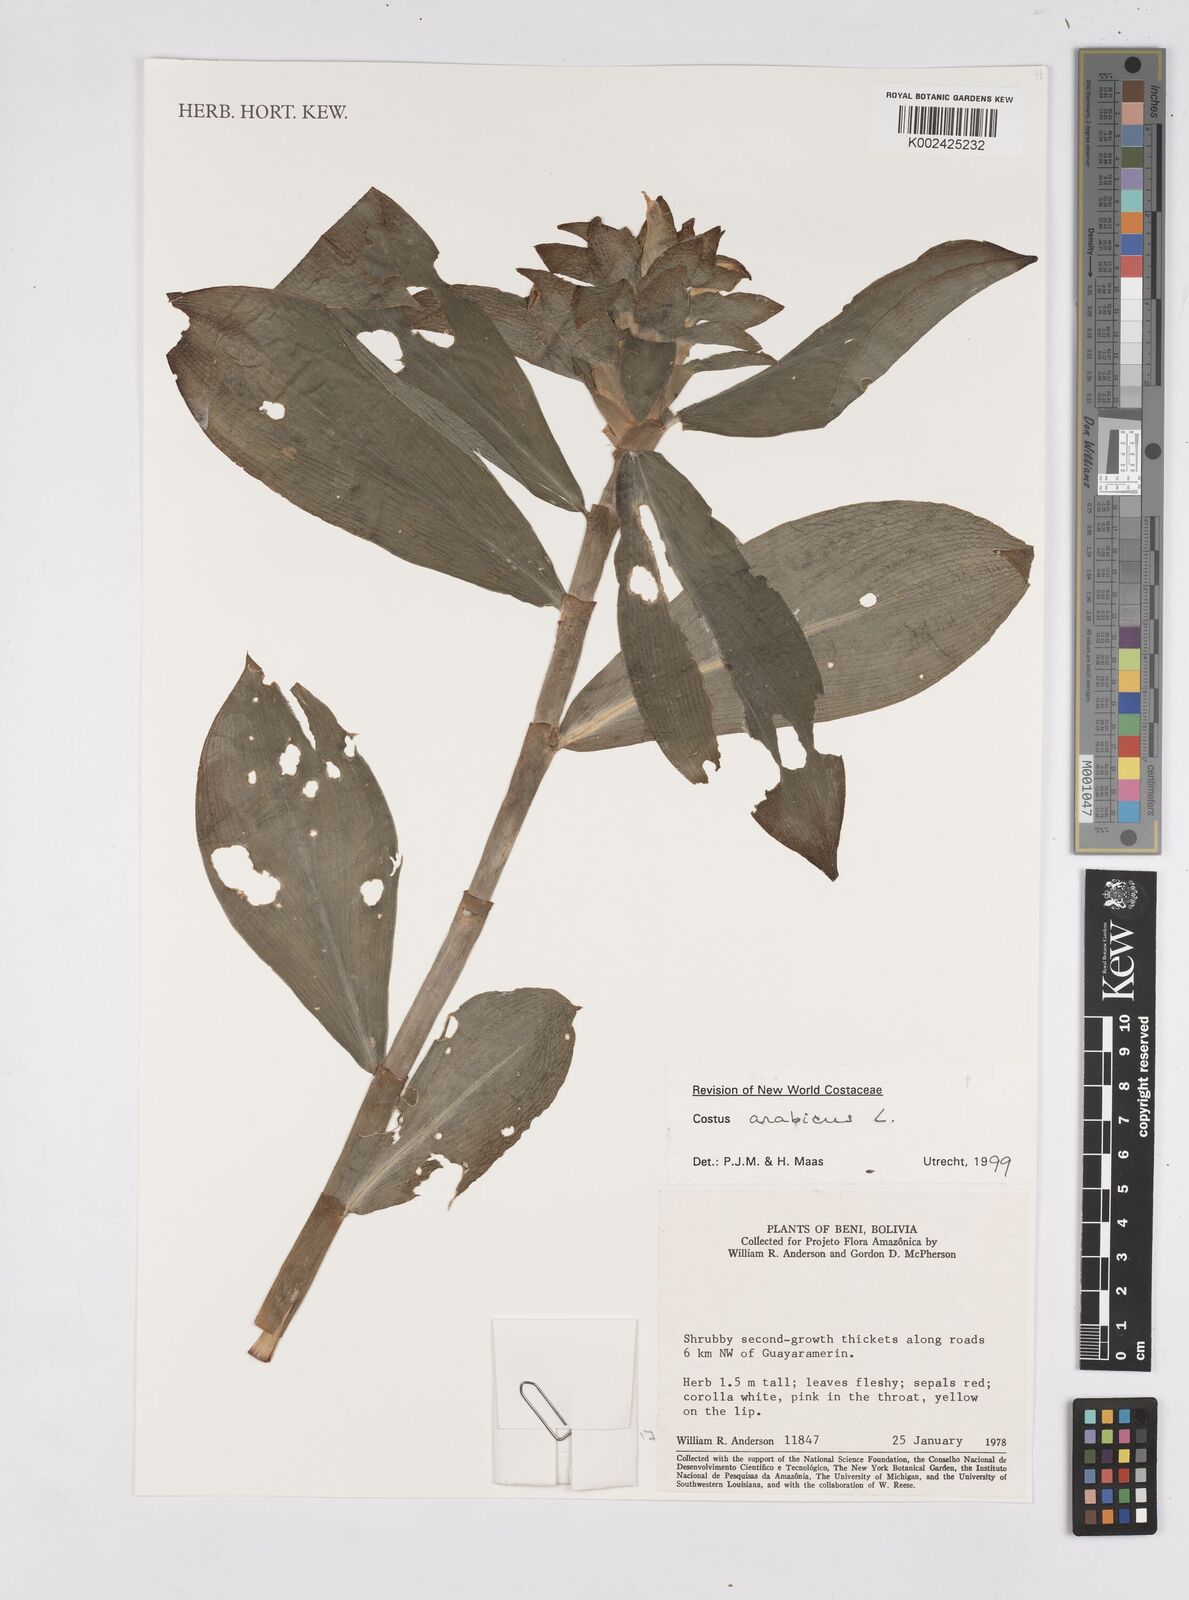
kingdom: Plantae
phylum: Tracheophyta
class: Liliopsida
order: Zingiberales
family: Costaceae
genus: Costus
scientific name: Costus arabicus
